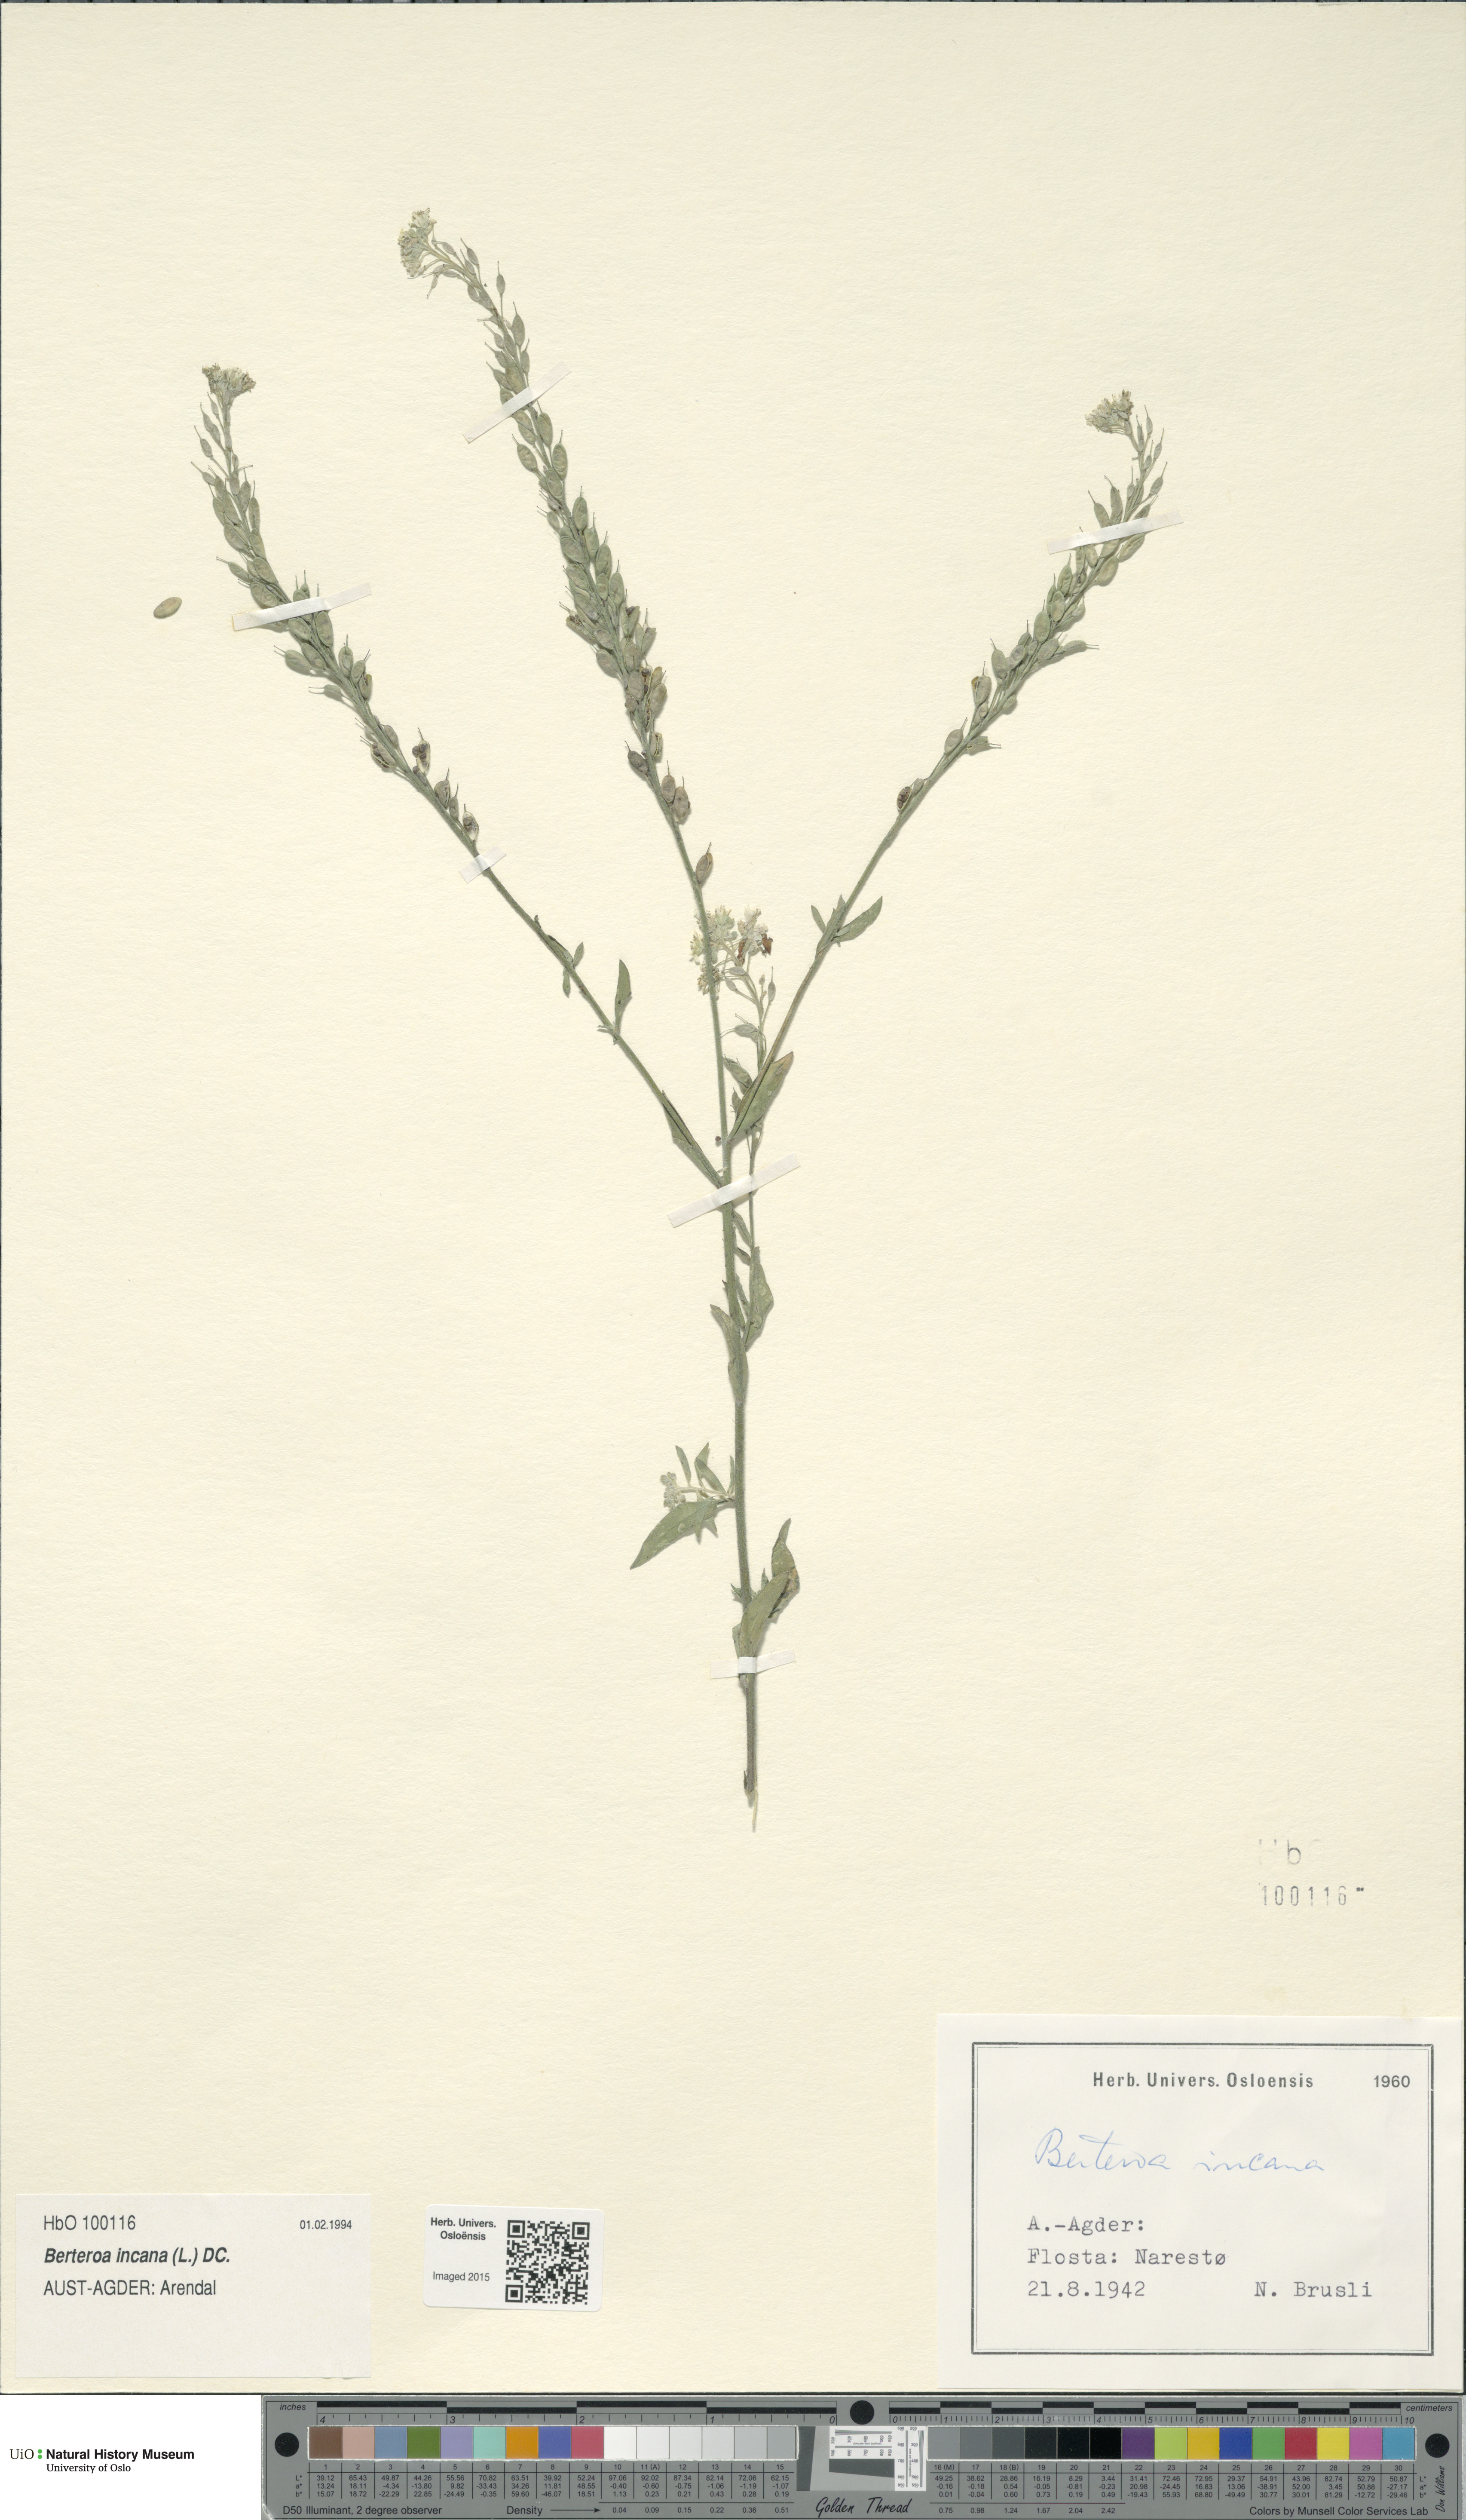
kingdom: Plantae
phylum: Tracheophyta
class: Magnoliopsida
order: Brassicales
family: Brassicaceae
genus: Berteroa
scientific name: Berteroa incana
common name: Hoary alison
